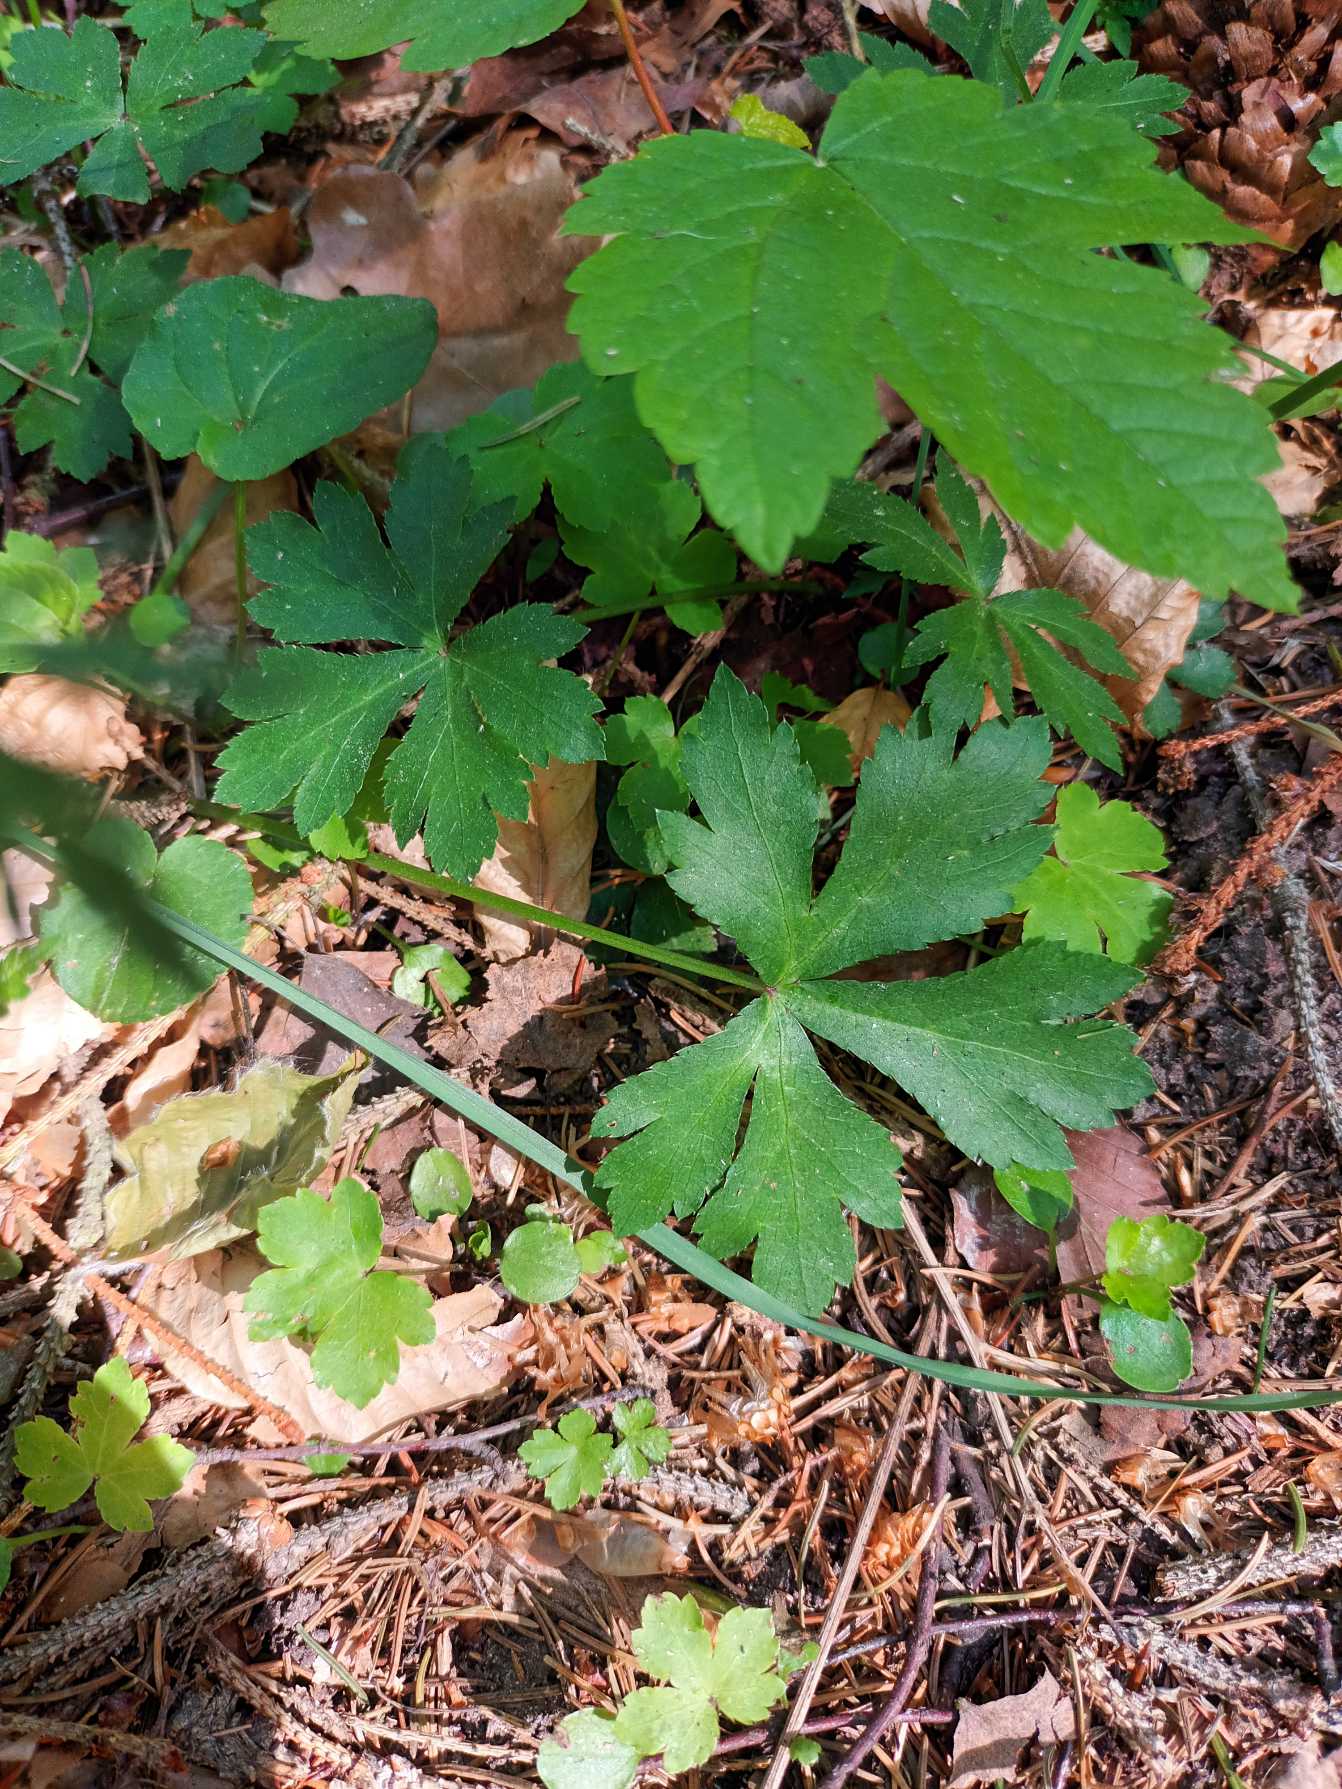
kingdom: Plantae
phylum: Tracheophyta
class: Magnoliopsida
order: Apiales
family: Apiaceae
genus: Sanicula
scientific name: Sanicula europaea
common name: Sanikel
